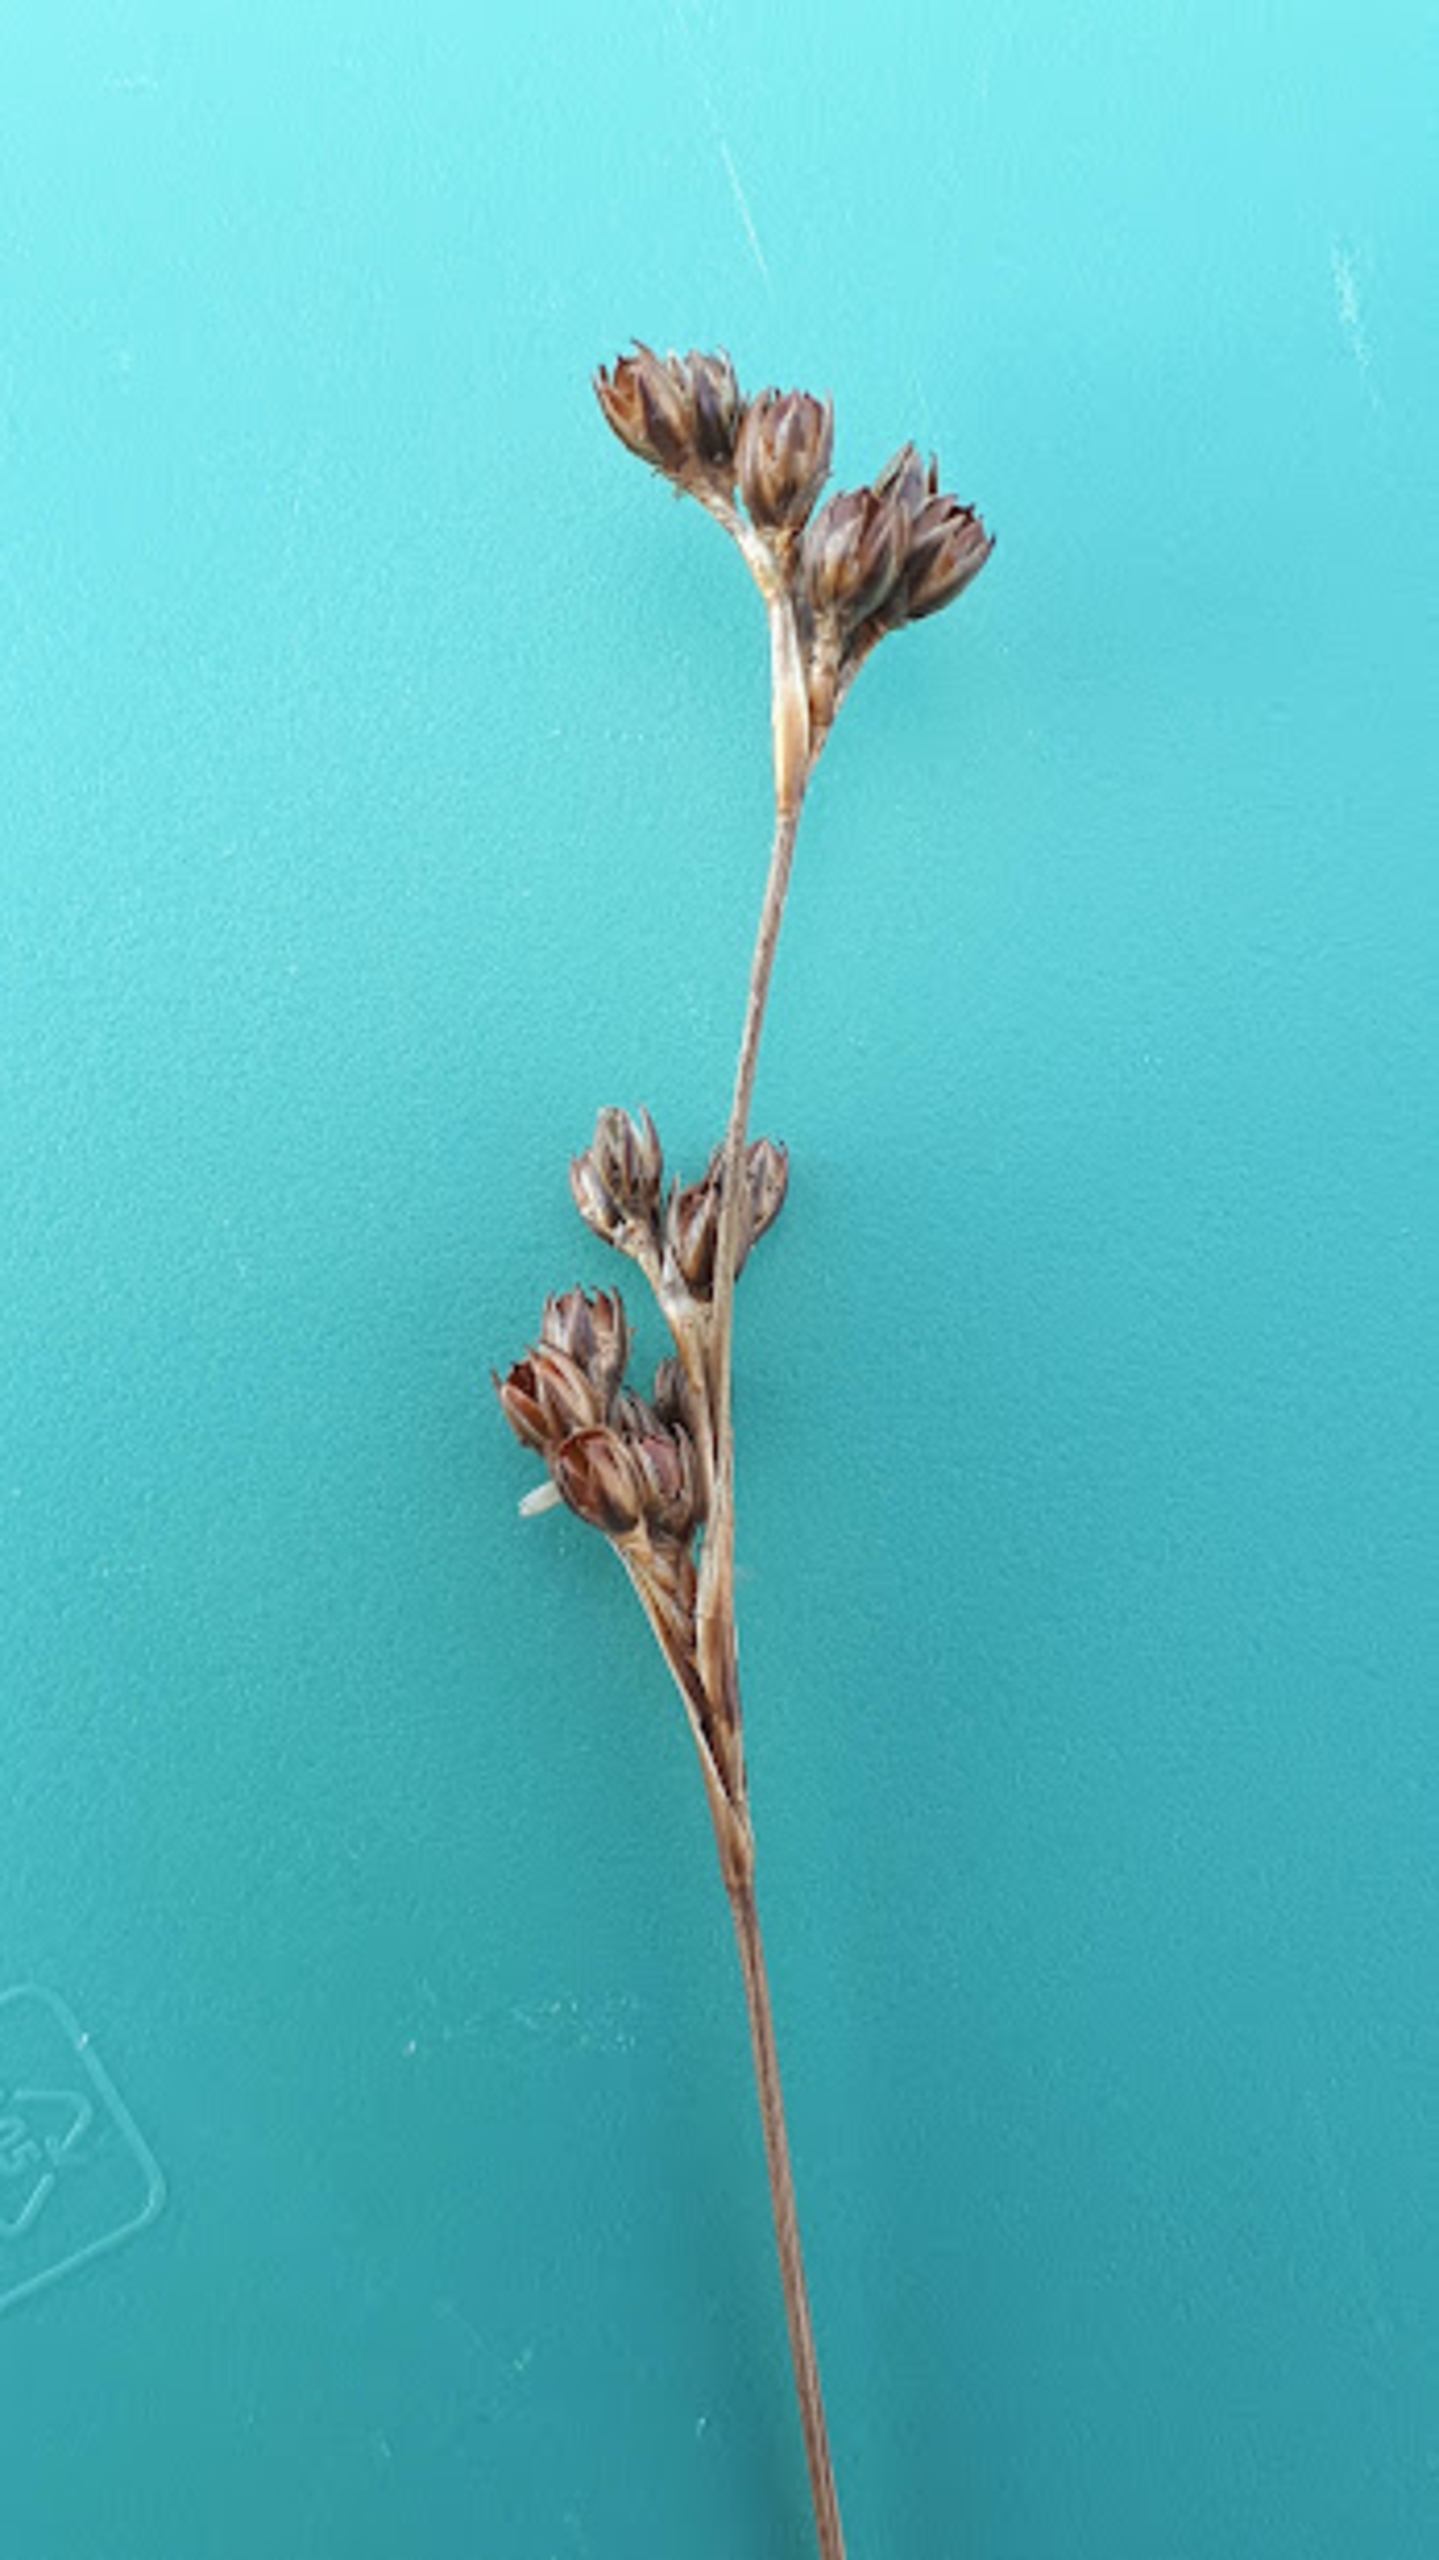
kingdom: Plantae
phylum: Tracheophyta
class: Liliopsida
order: Poales
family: Juncaceae
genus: Juncus
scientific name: Juncus squarrosus
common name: Børste-siv
